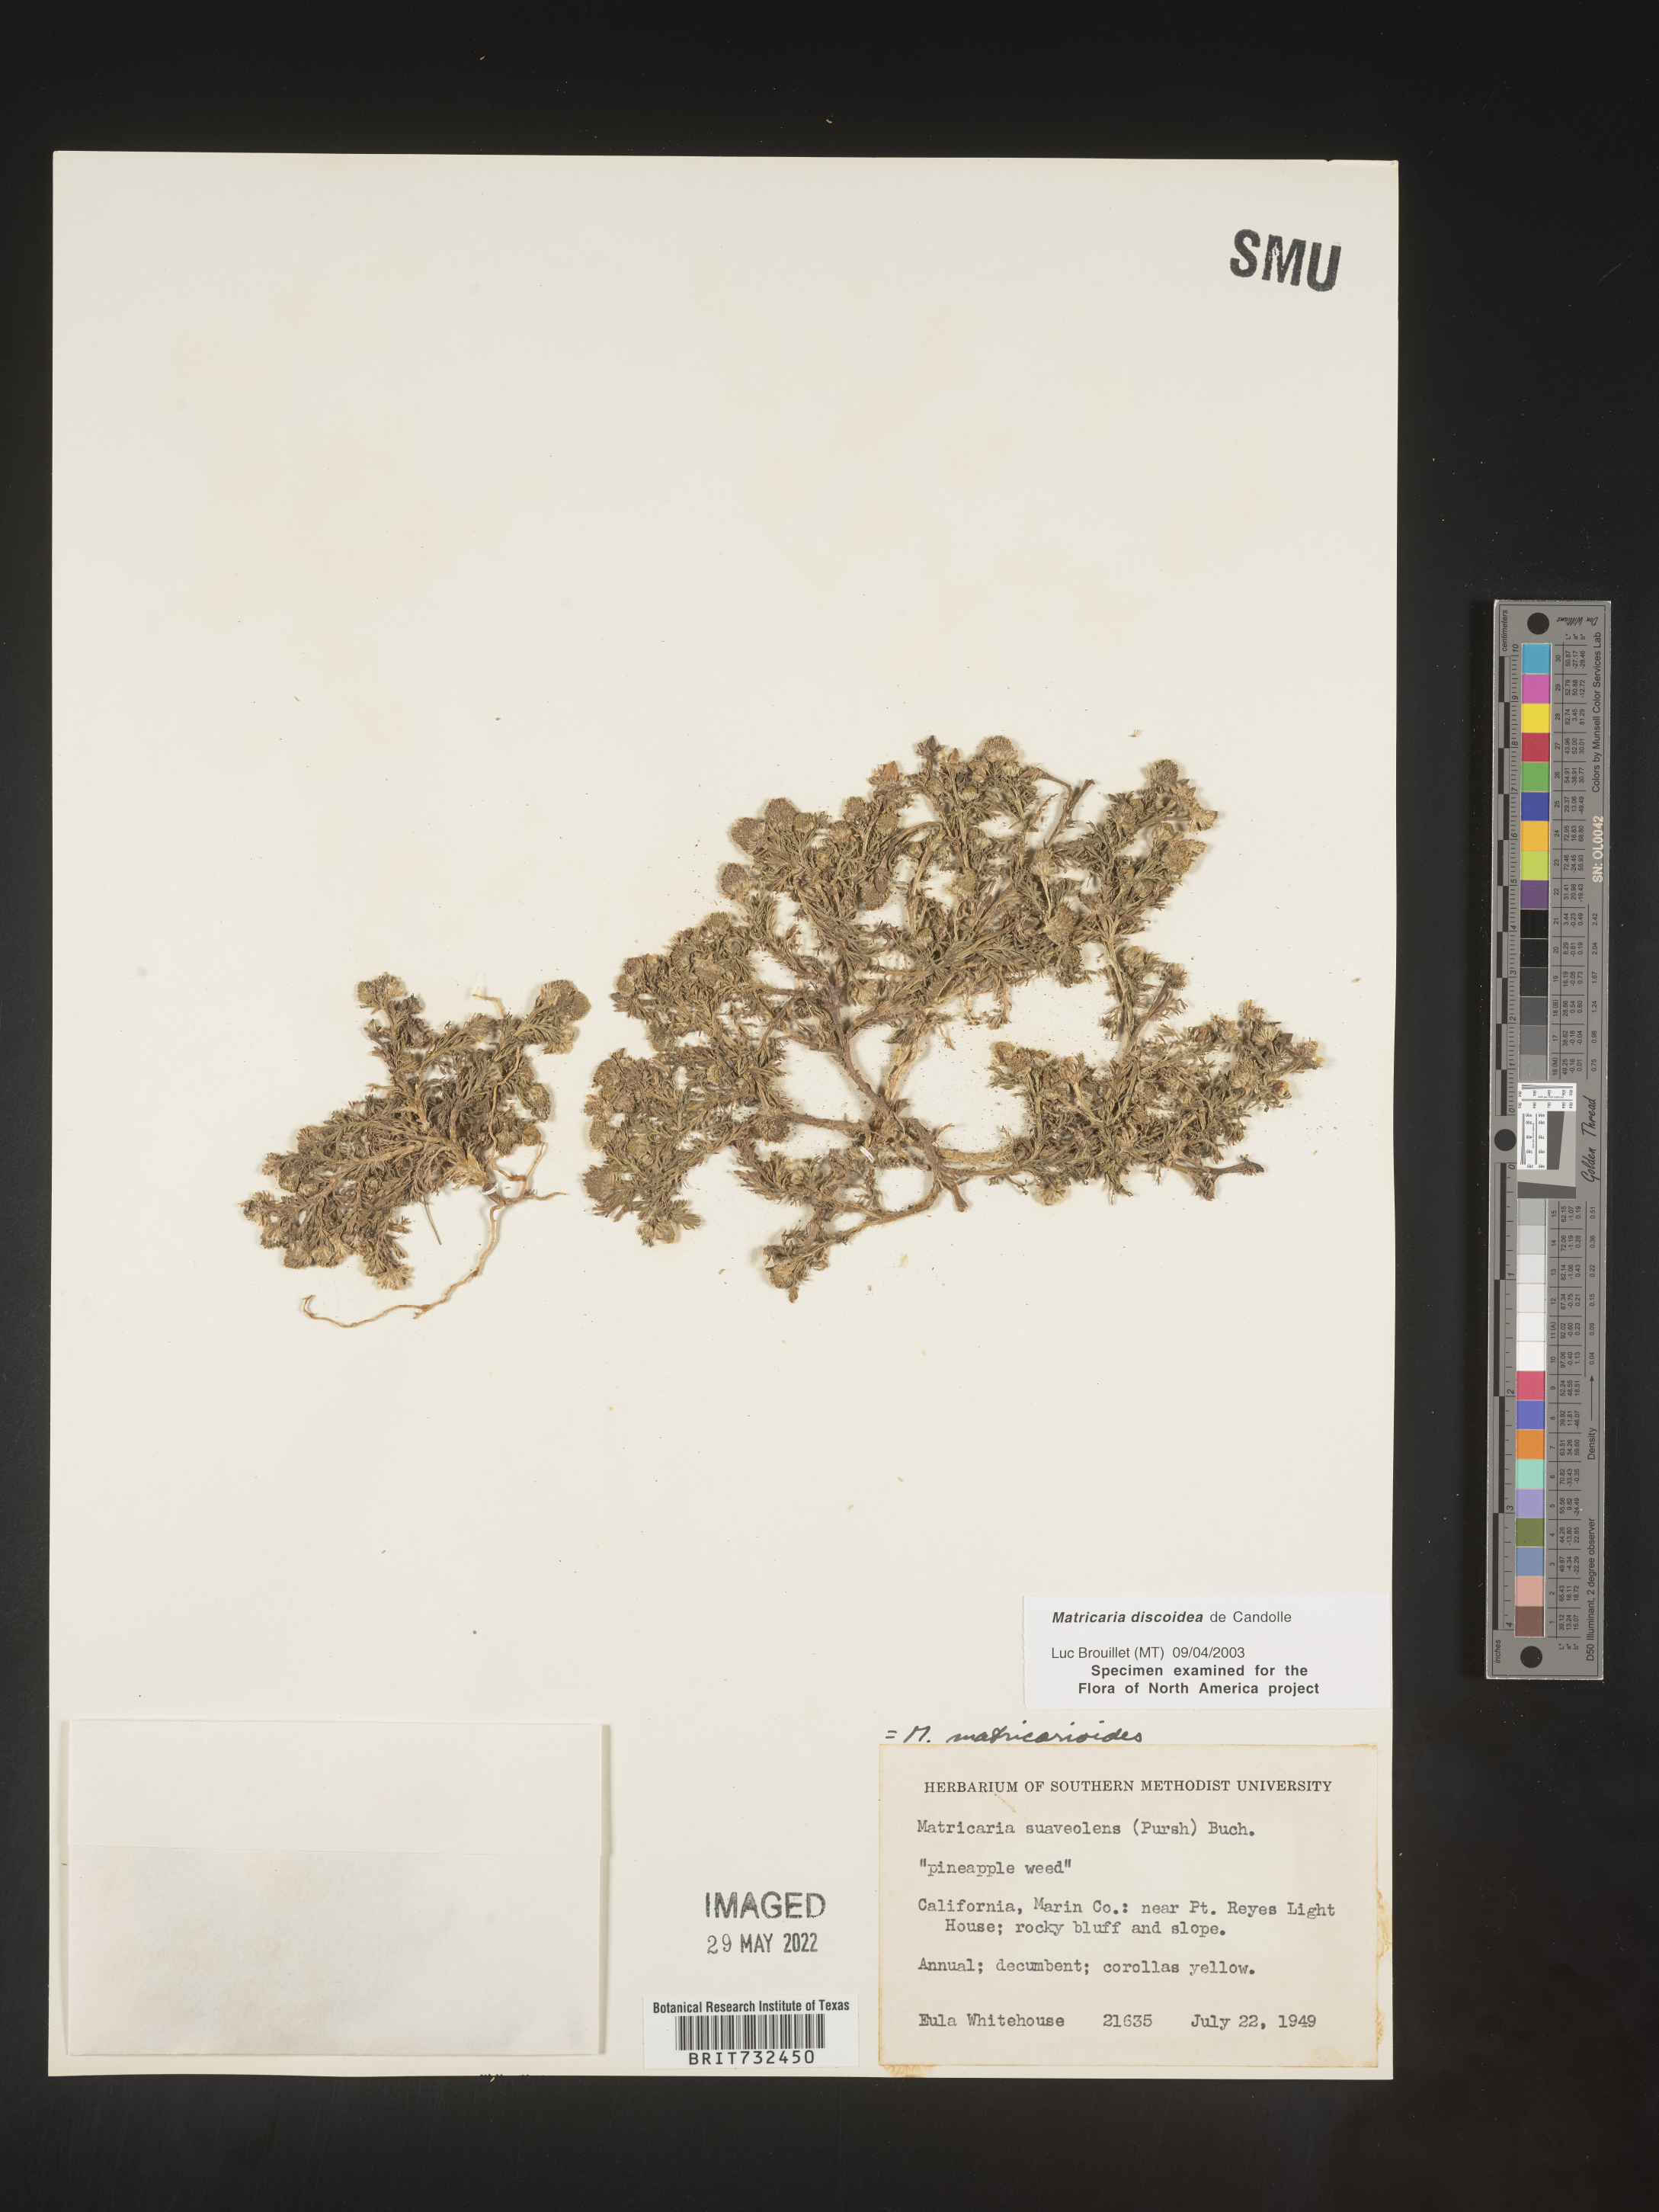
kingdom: Plantae
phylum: Tracheophyta
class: Magnoliopsida
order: Asterales
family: Asteraceae
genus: Matricaria
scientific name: Matricaria discoidea
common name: Disc mayweed
